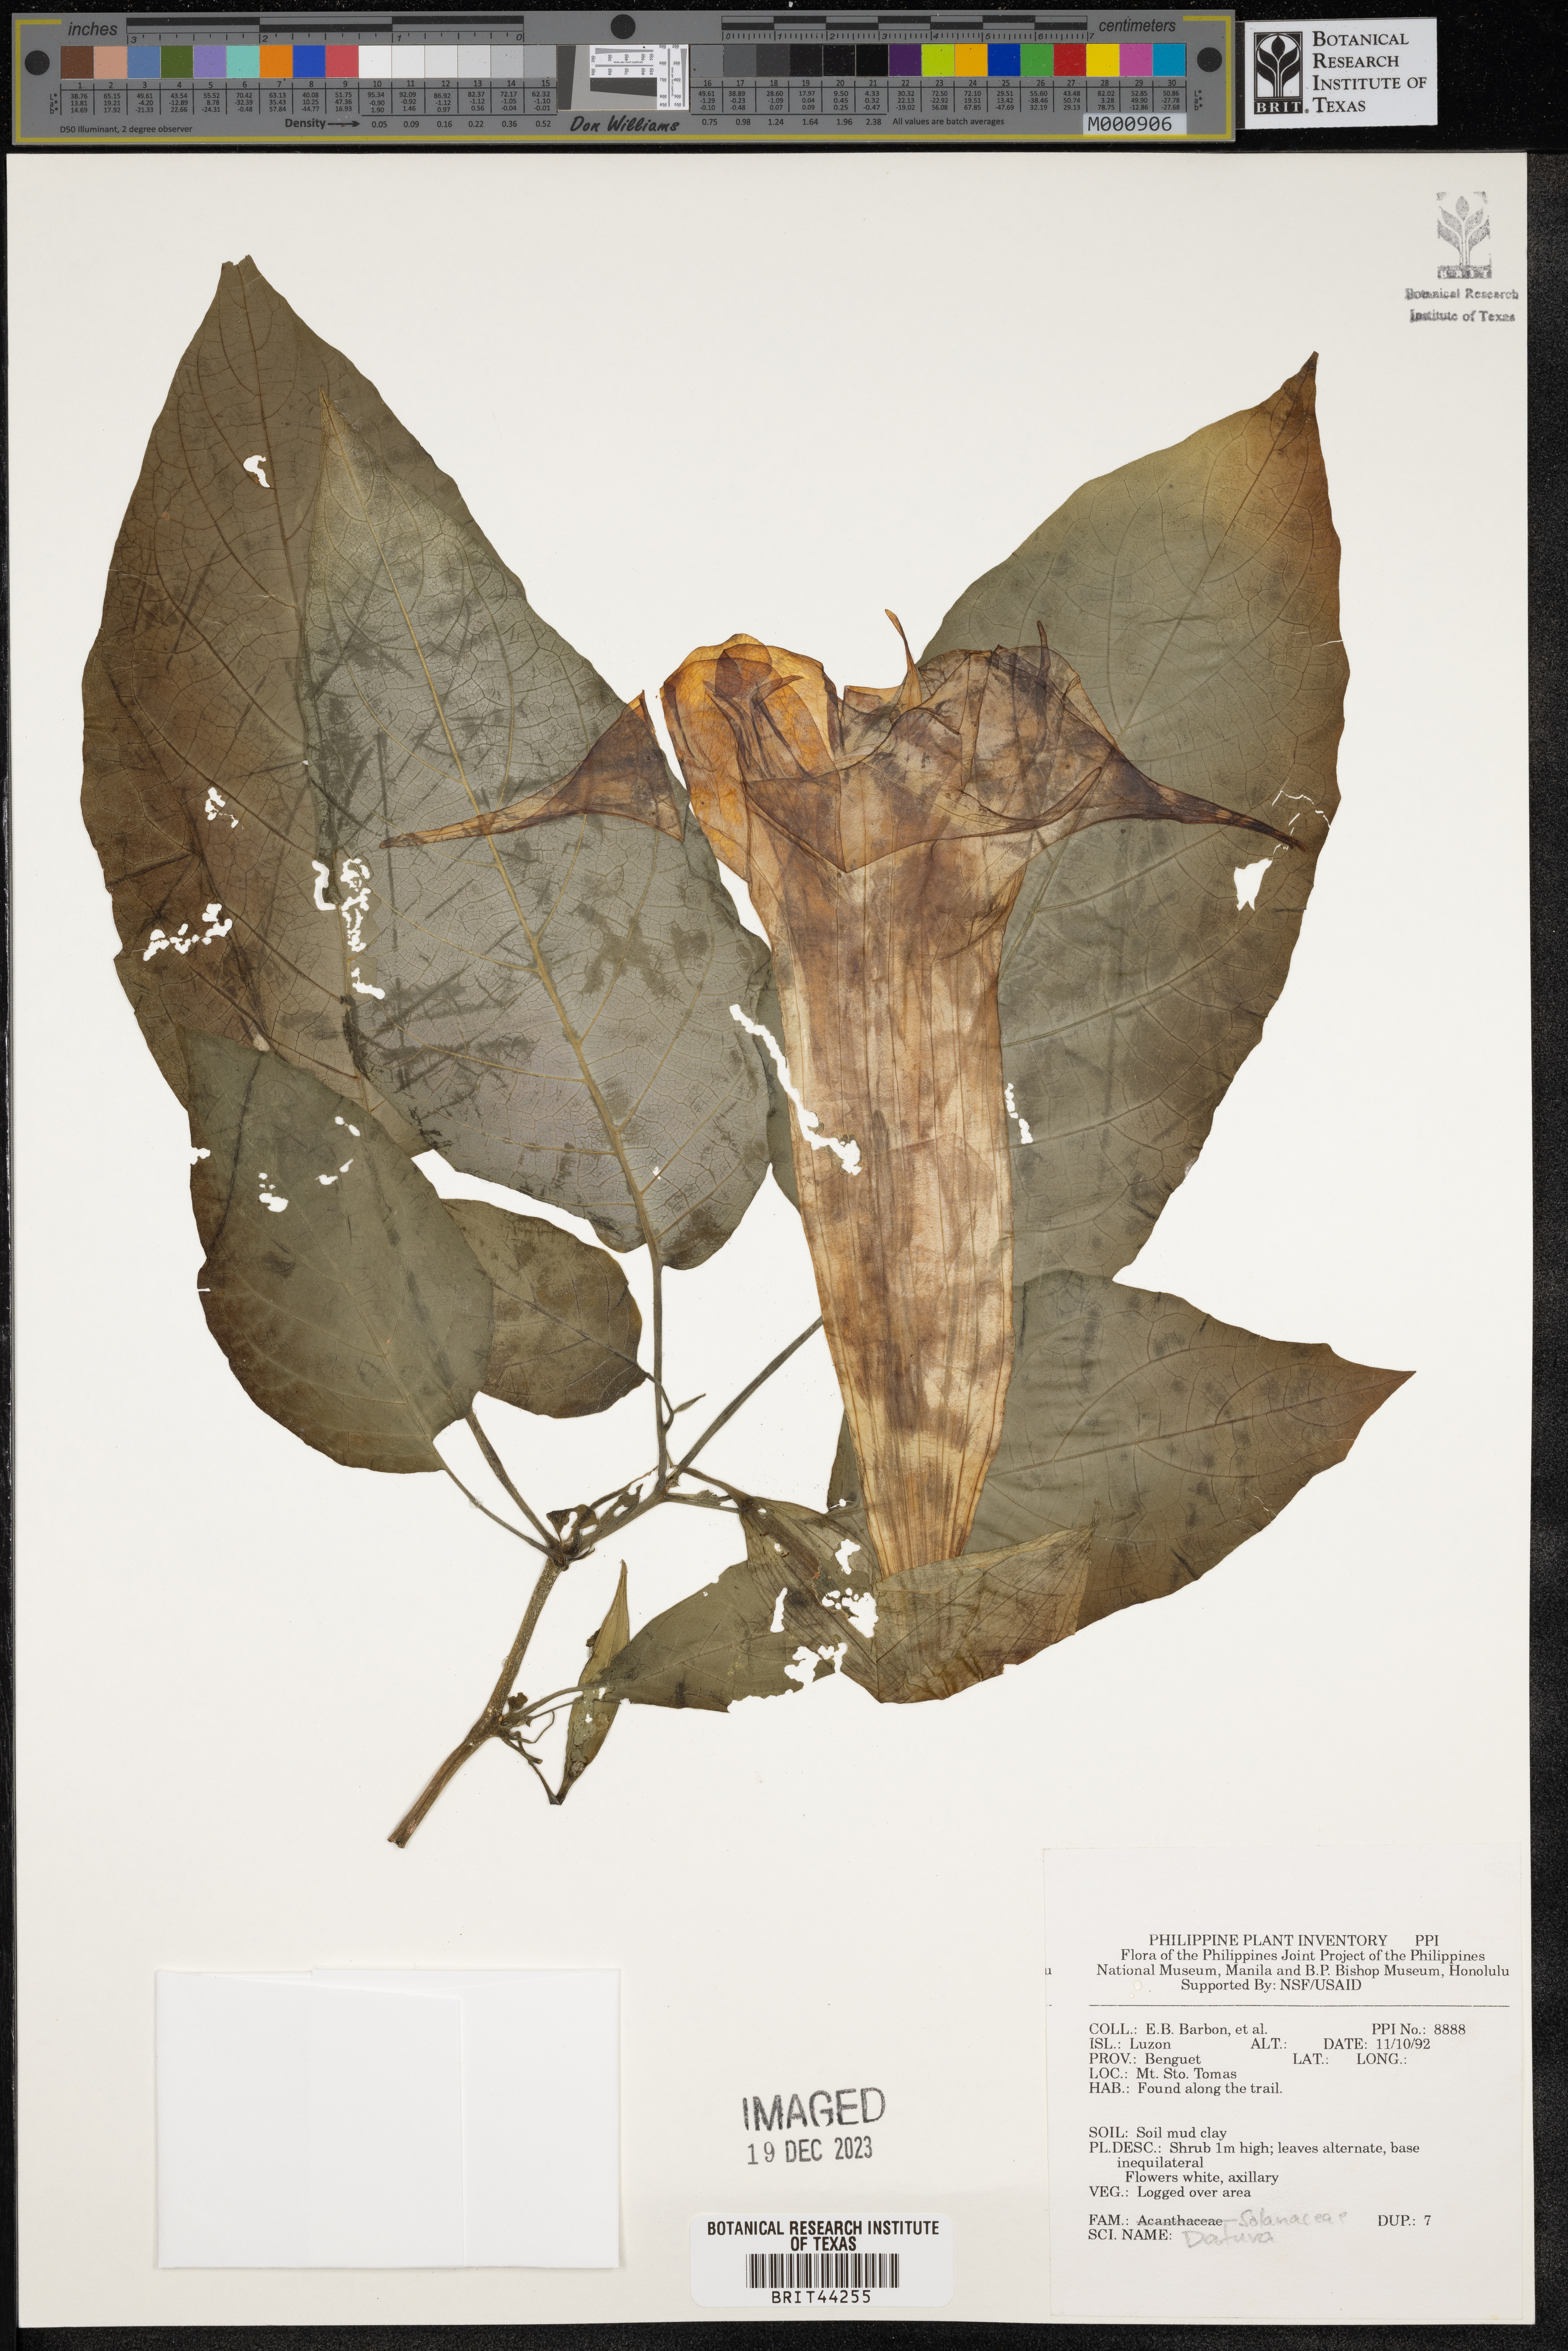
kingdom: Plantae
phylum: Tracheophyta
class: Magnoliopsida
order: Solanales
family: Solanaceae
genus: Datura
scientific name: Datura
